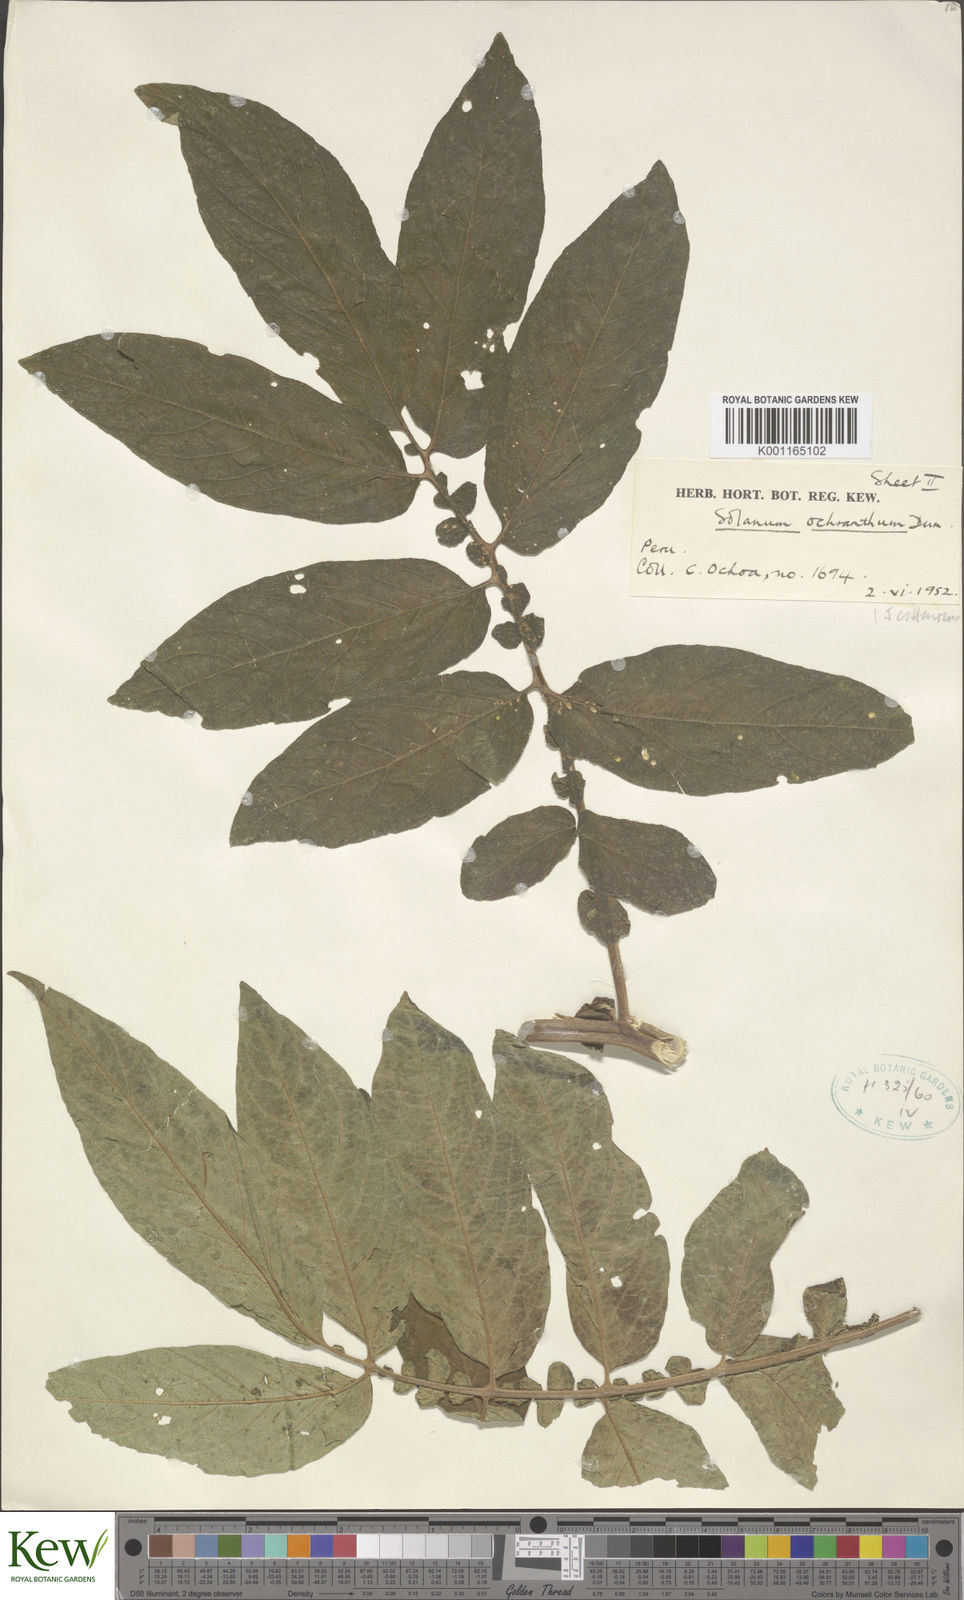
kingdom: Plantae
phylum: Tracheophyta
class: Magnoliopsida
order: Solanales
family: Solanaceae
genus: Solanum
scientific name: Solanum ochranthum
